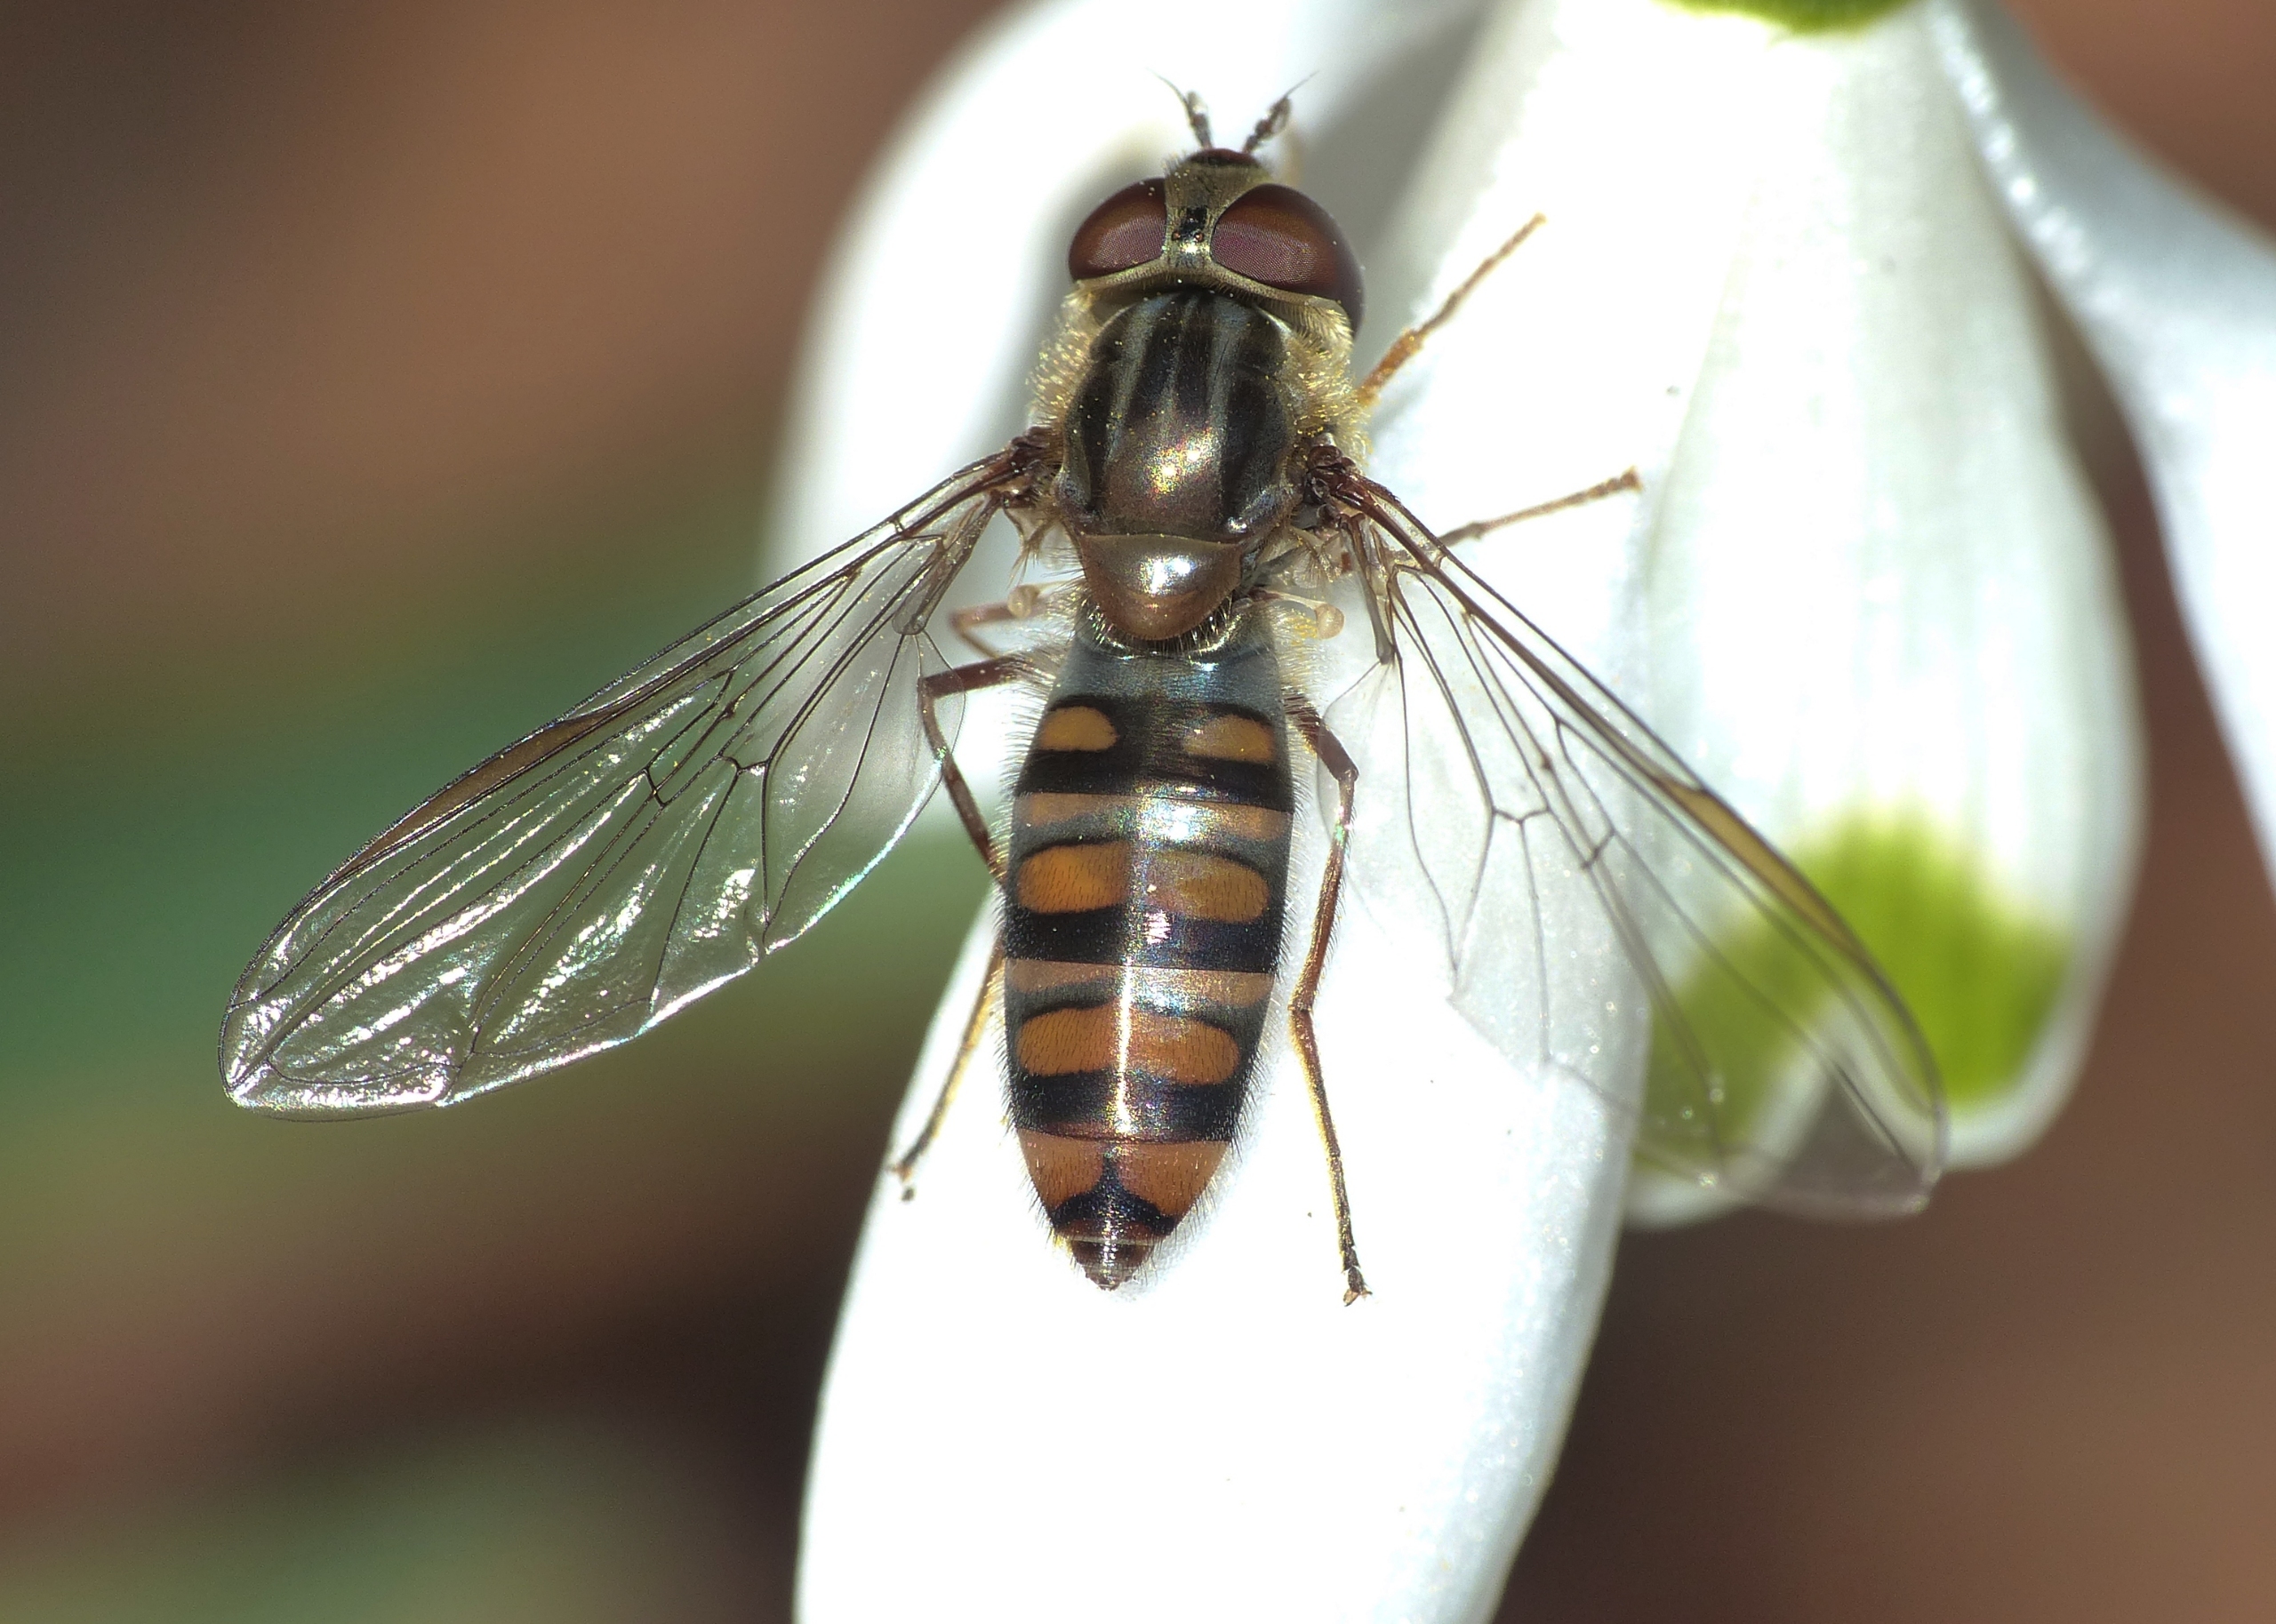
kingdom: Animalia
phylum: Arthropoda
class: Insecta
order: Diptera
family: Syrphidae
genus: Episyrphus
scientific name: Episyrphus balteatus
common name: Dobbeltbåndet svirreflue
